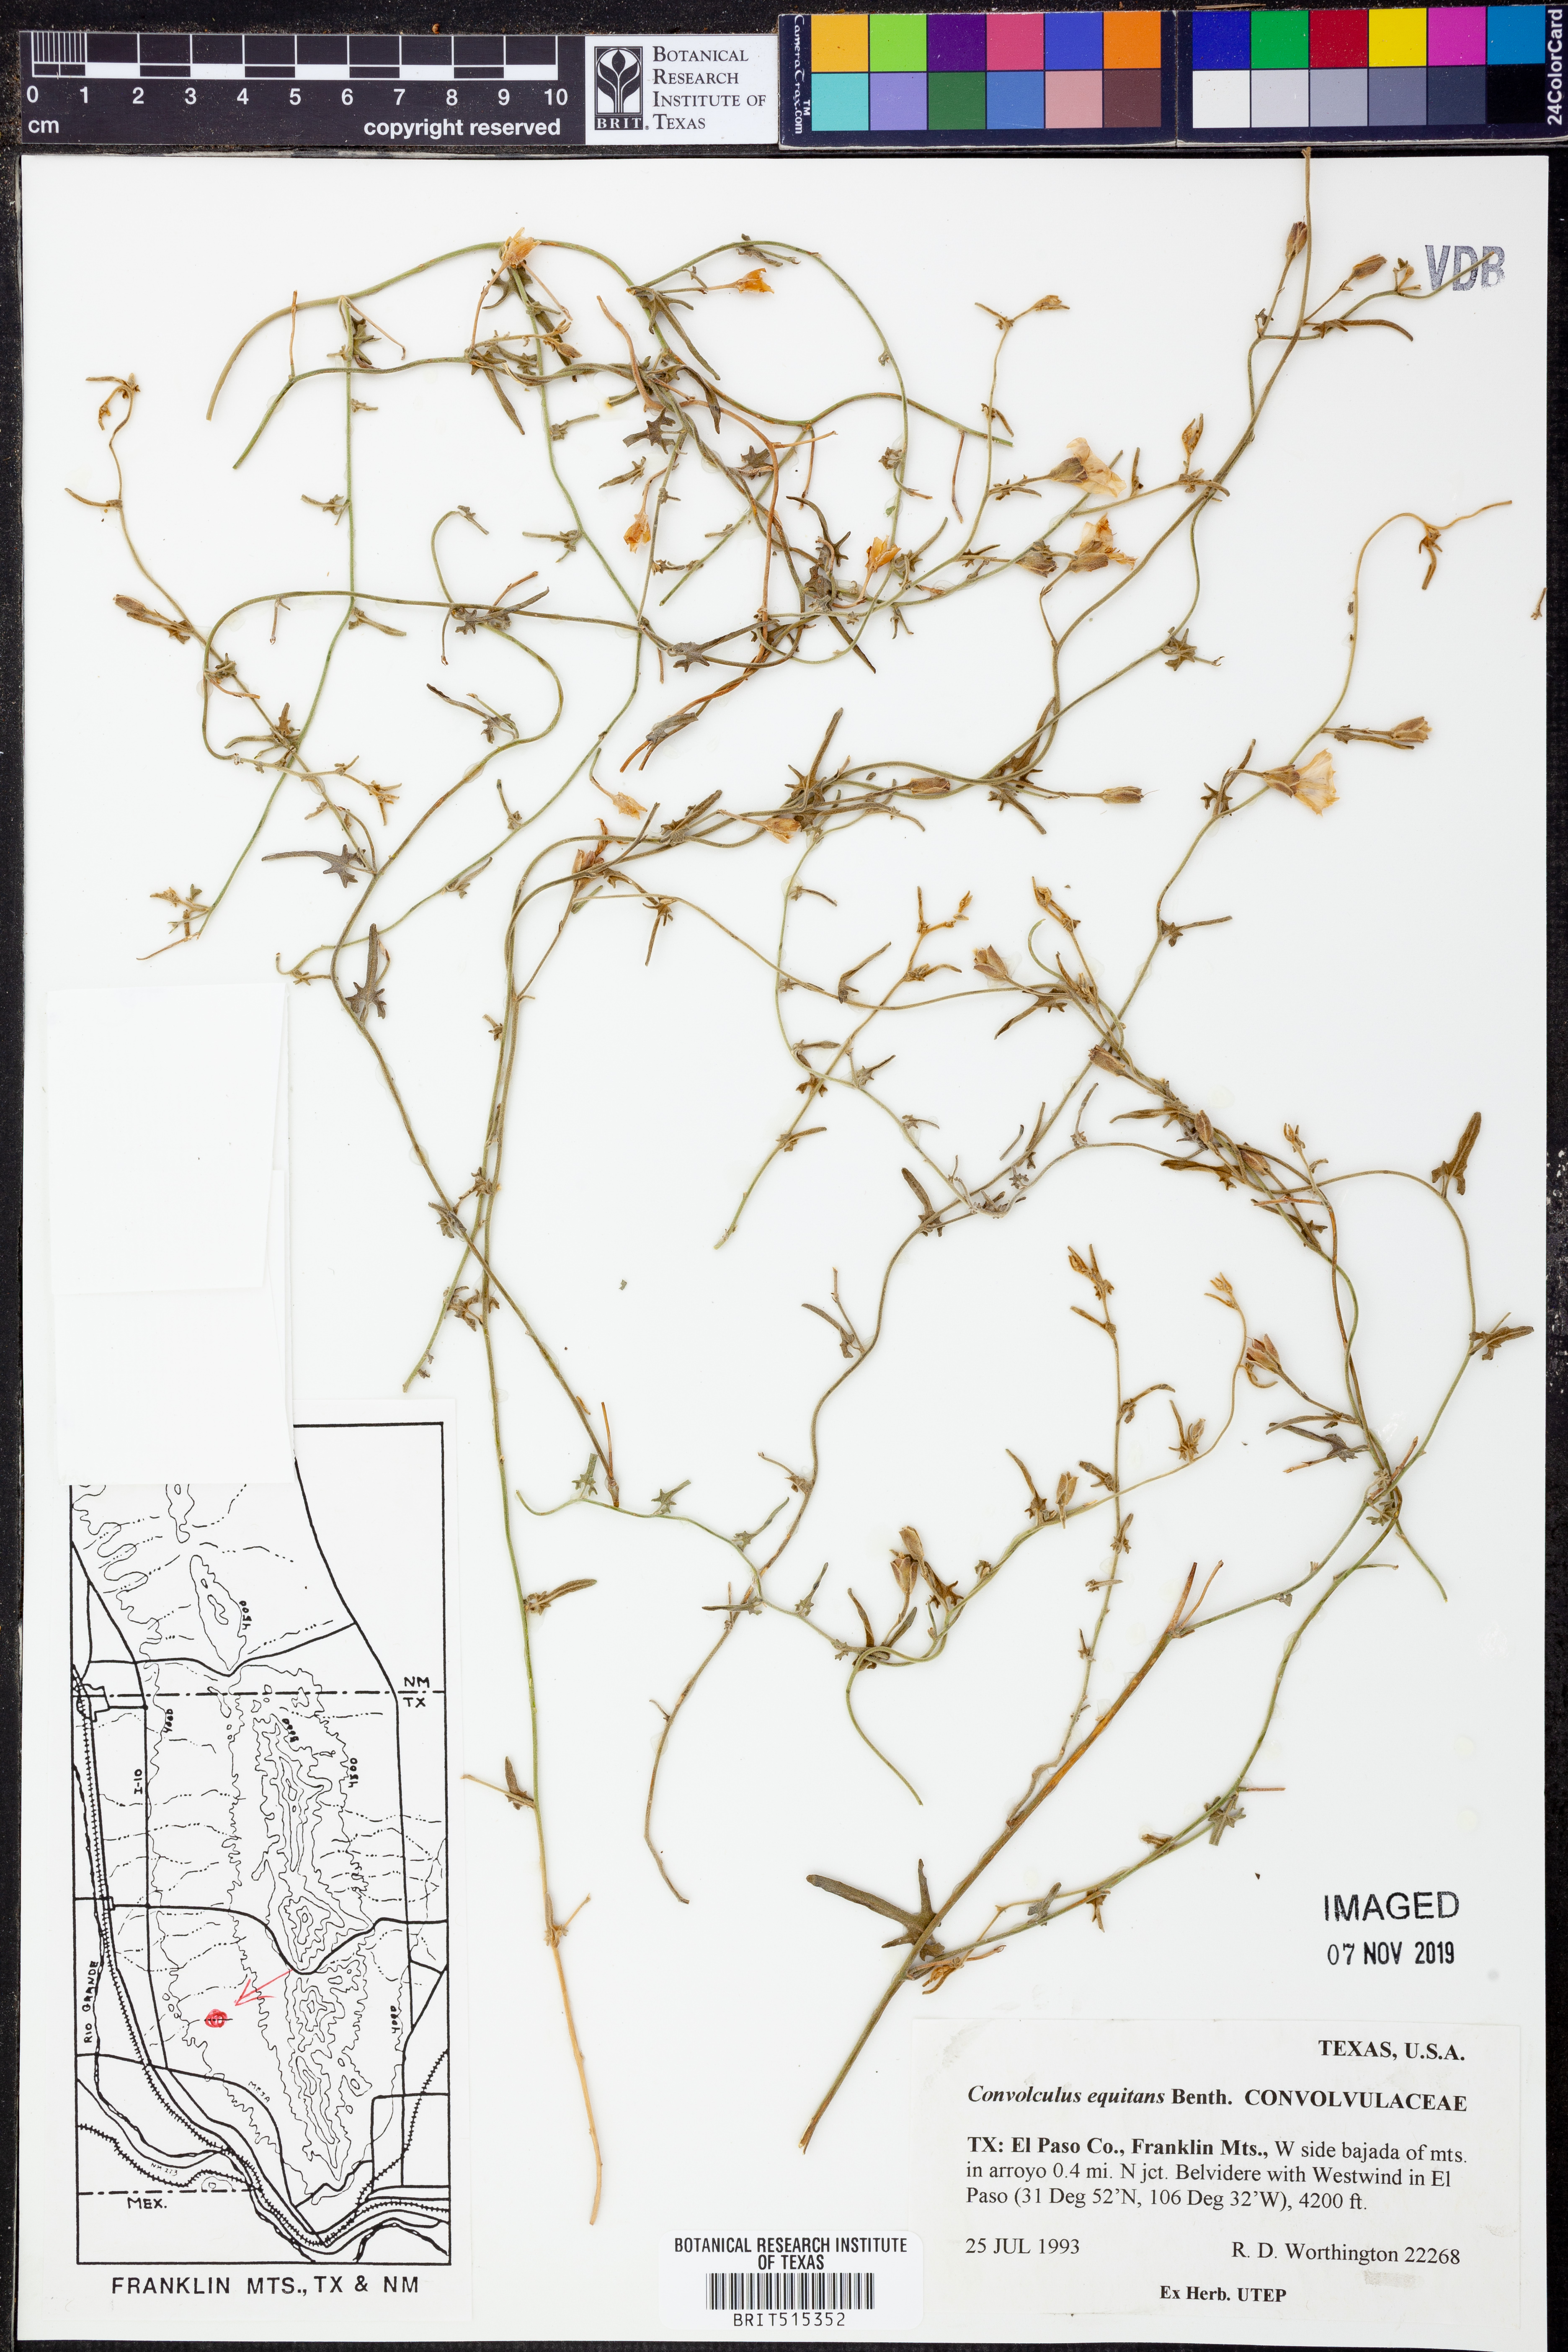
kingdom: Plantae
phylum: Tracheophyta
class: Magnoliopsida
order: Solanales
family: Convolvulaceae
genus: Convolvulus
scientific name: Convolvulus equitans
